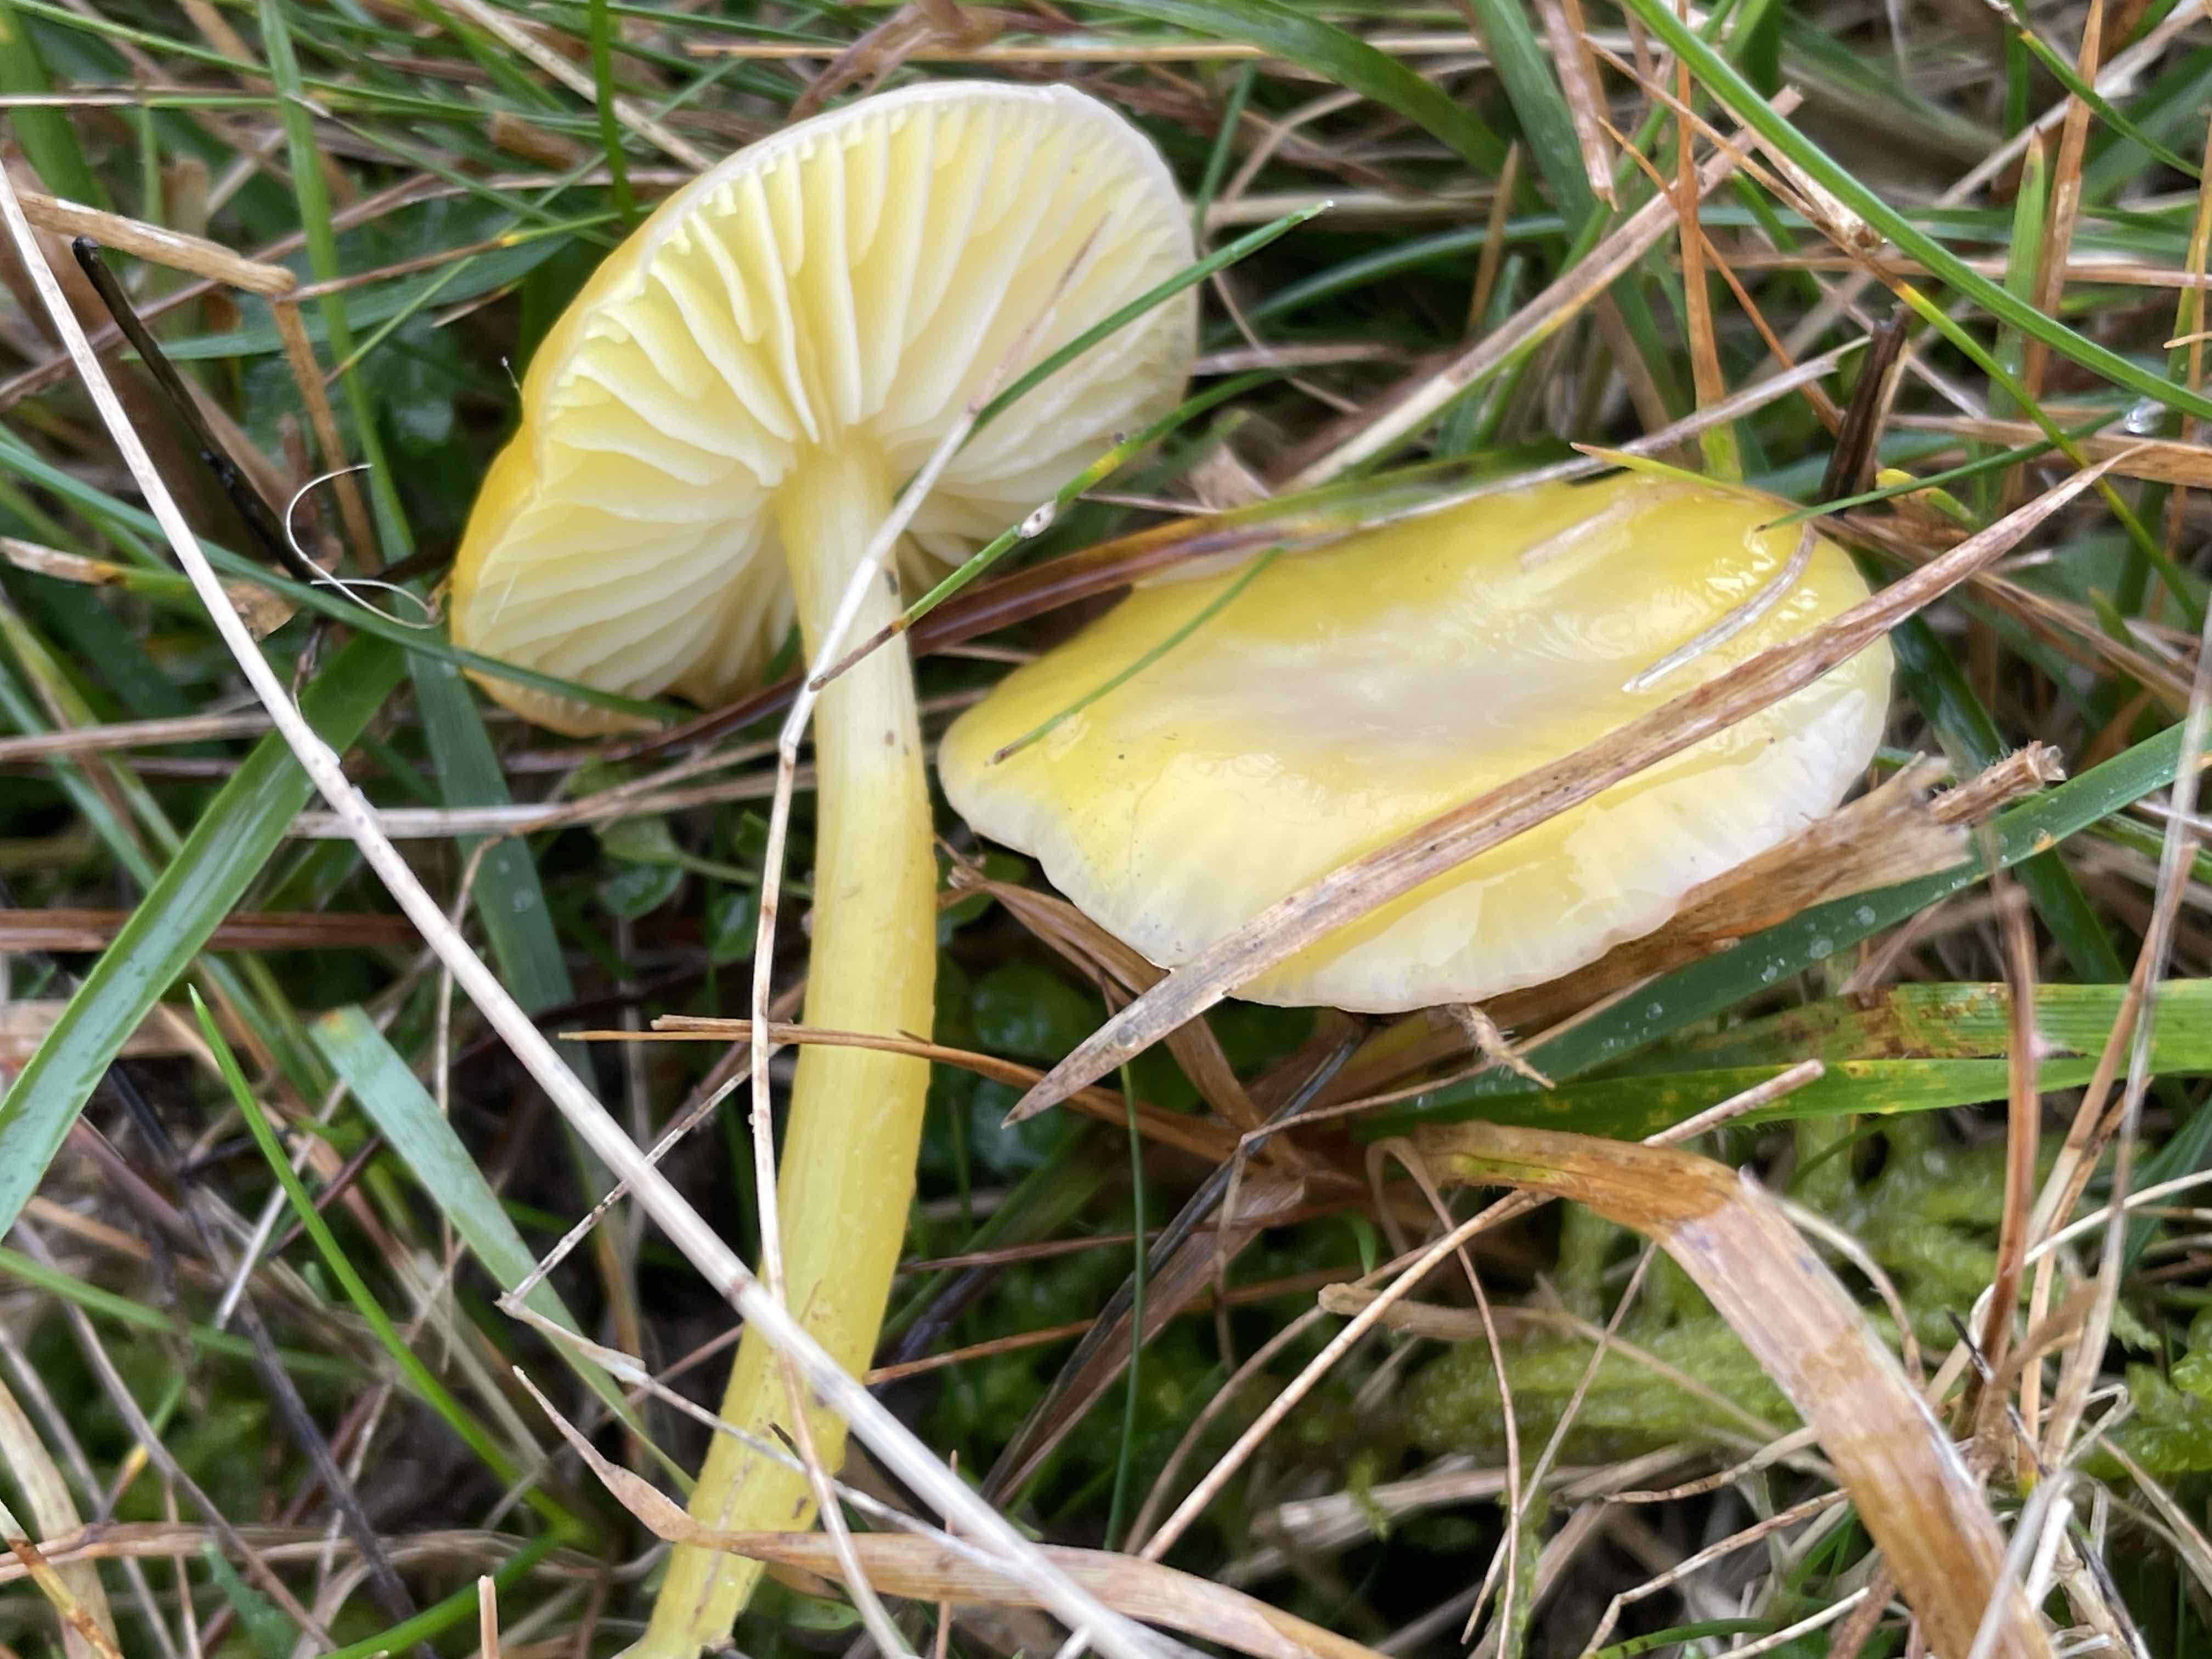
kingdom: Fungi
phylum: Basidiomycota
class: Agaricomycetes
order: Agaricales
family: Hygrophoraceae
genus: Hygrocybe
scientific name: Hygrocybe chlorophana
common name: gul vokshat
